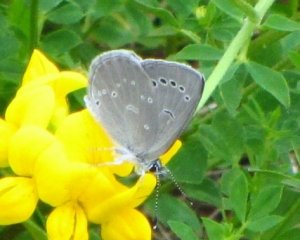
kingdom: Animalia
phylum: Arthropoda
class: Insecta
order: Lepidoptera
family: Lycaenidae
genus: Glaucopsyche
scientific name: Glaucopsyche lygdamus
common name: Silvery Blue
